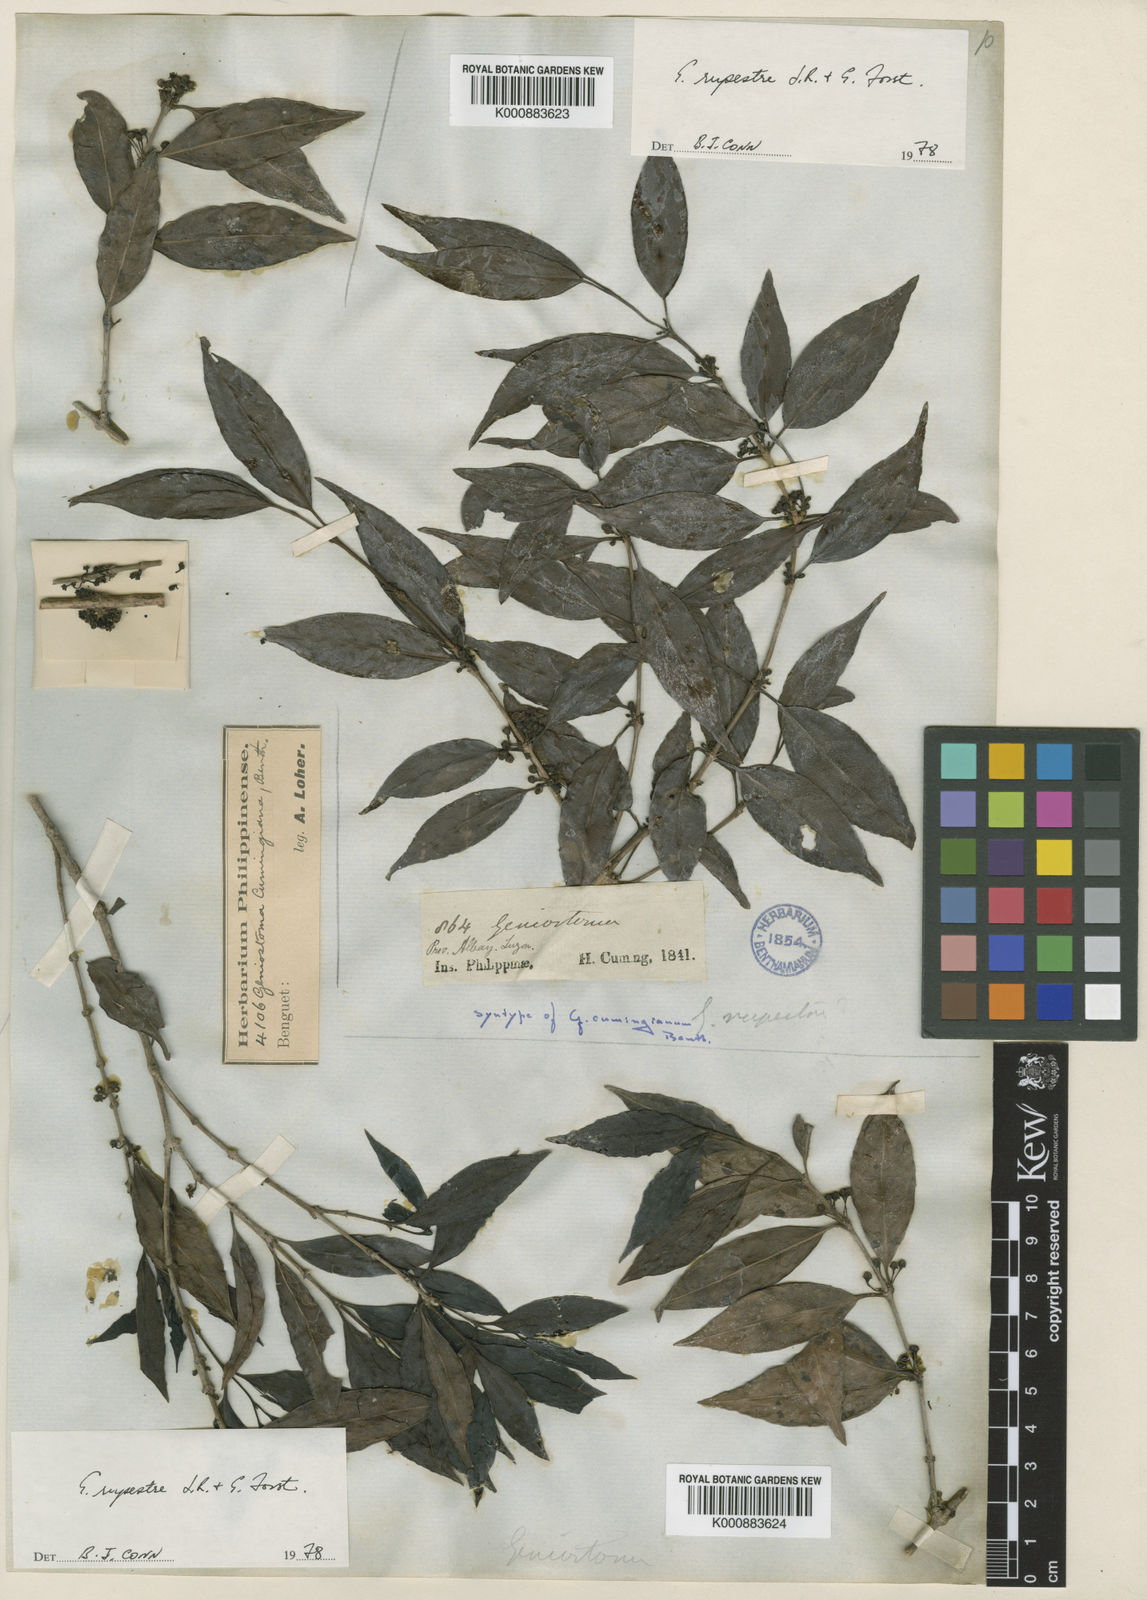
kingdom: Plantae
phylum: Tracheophyta
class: Magnoliopsida
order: Gentianales
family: Loganiaceae
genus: Geniostoma
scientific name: Geniostoma rupestre
